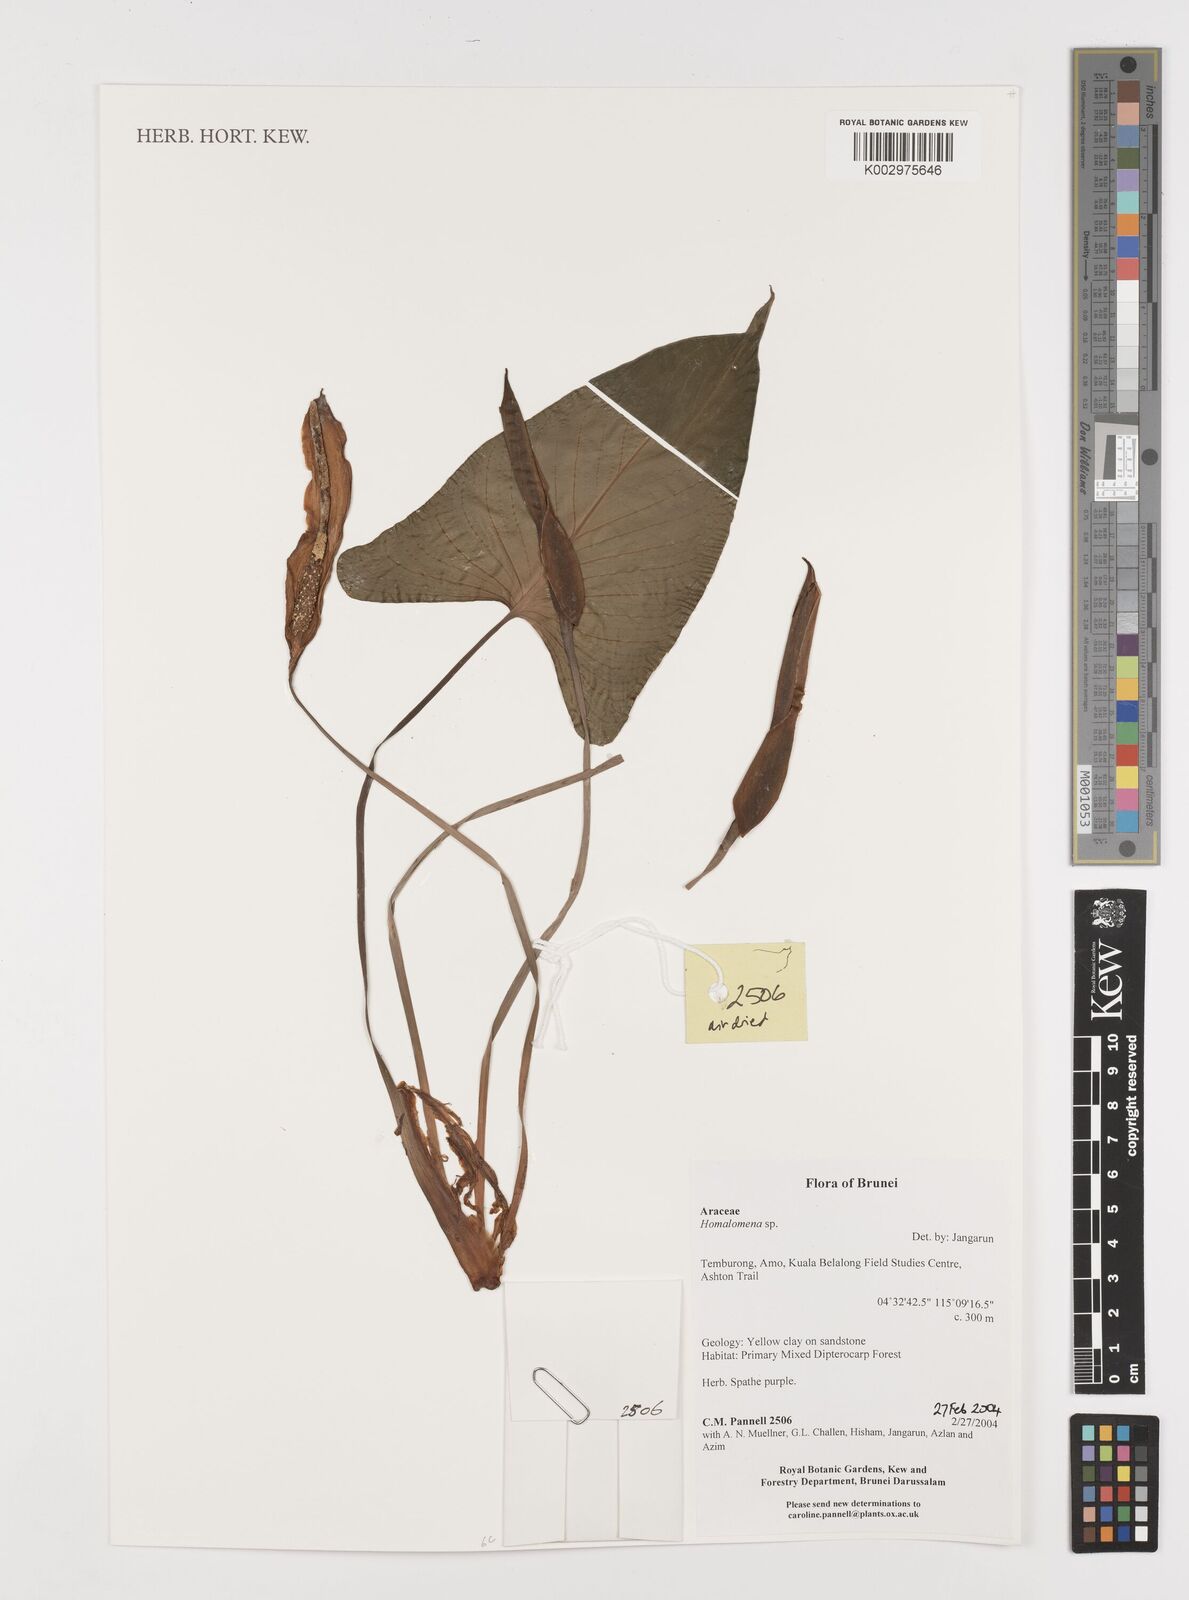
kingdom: Plantae
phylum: Tracheophyta
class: Liliopsida
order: Alismatales
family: Araceae
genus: Homalomena
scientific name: Homalomena
